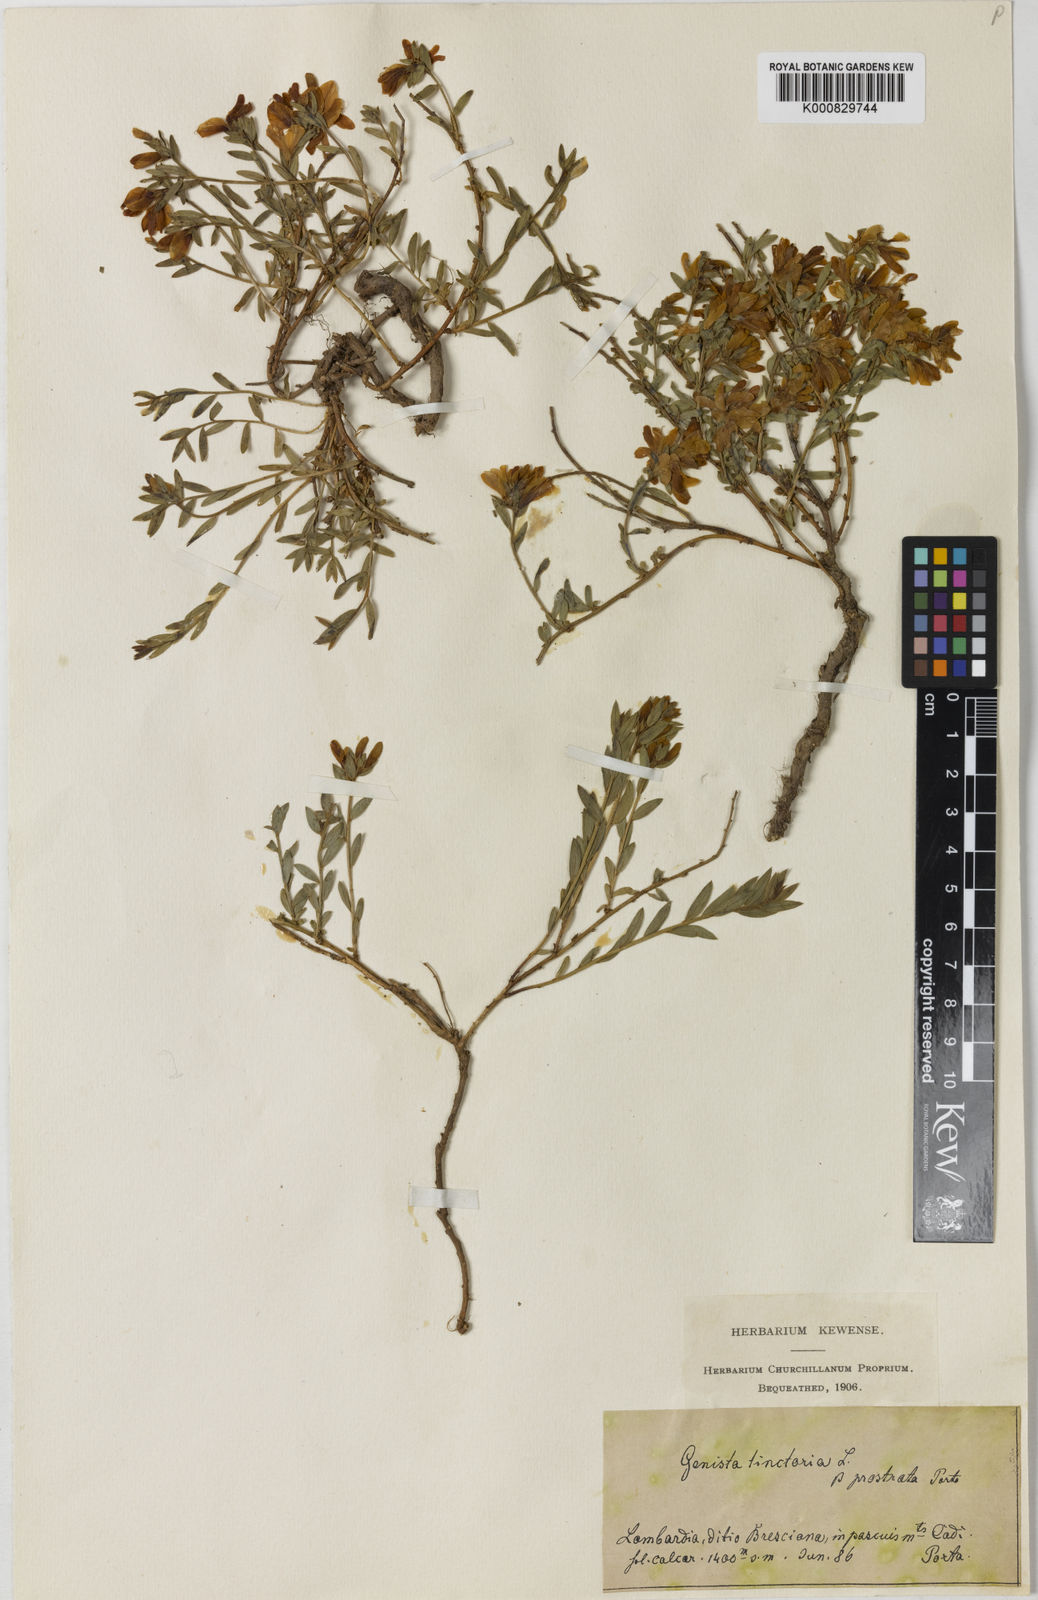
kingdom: Plantae
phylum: Tracheophyta
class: Magnoliopsida
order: Fabales
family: Fabaceae
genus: Genista
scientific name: Genista tinctoria
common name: Dyer's greenweed
